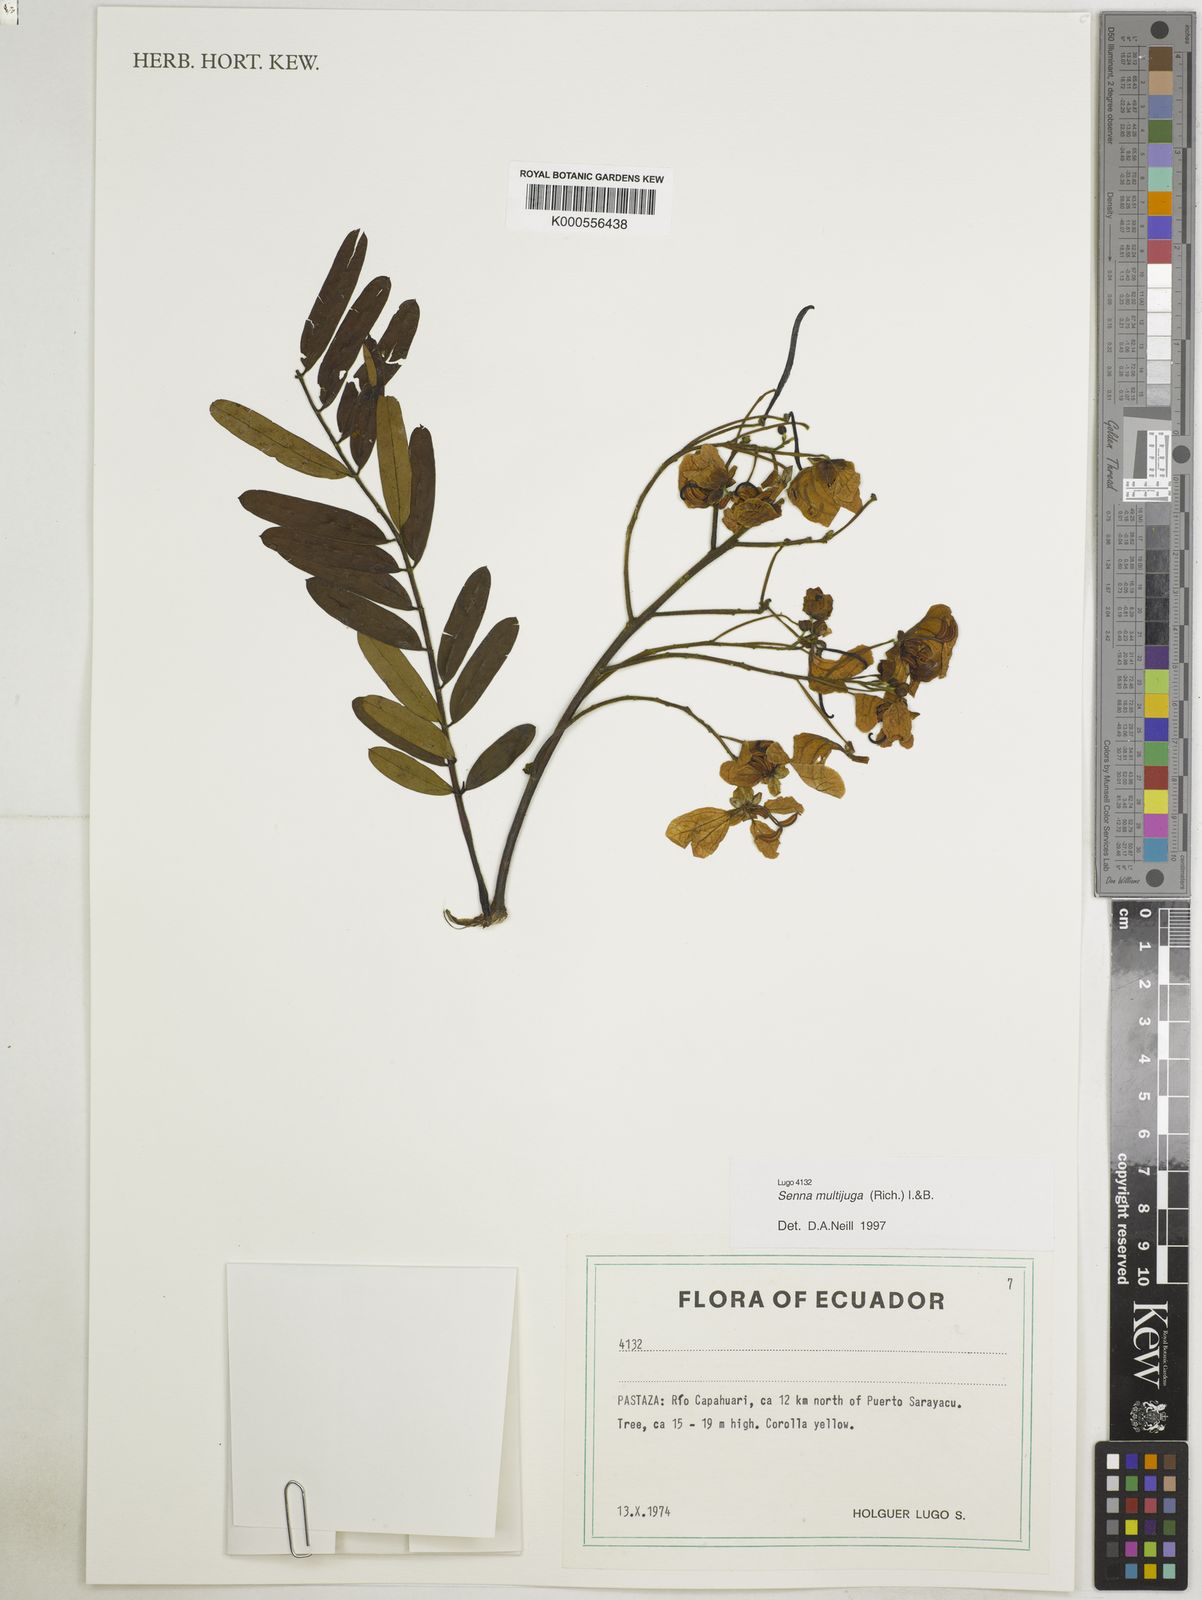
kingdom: Plantae
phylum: Tracheophyta
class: Magnoliopsida
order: Fabales
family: Fabaceae
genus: Senna
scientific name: Senna multijuga
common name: False sicklepod
